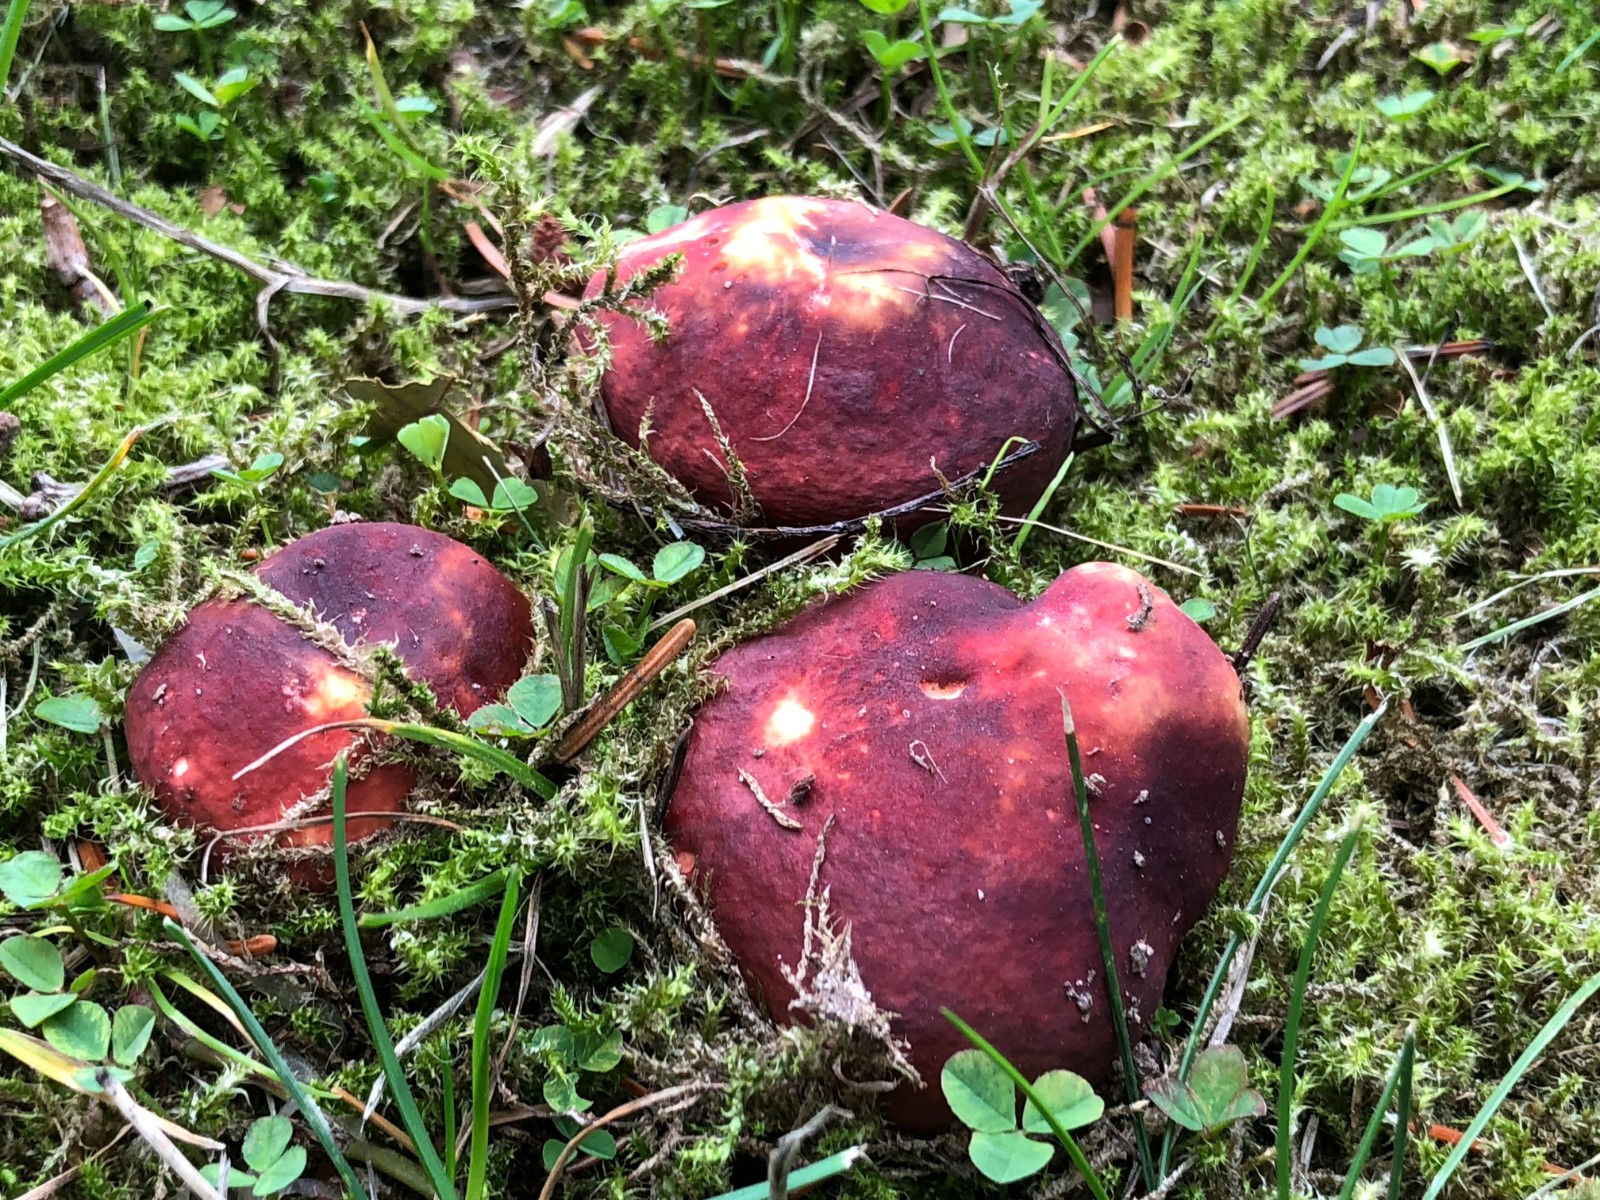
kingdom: Fungi
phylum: Basidiomycota
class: Agaricomycetes
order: Russulales
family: Russulaceae
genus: Russula
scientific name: Russula graveolens
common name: bugtet skørhat
